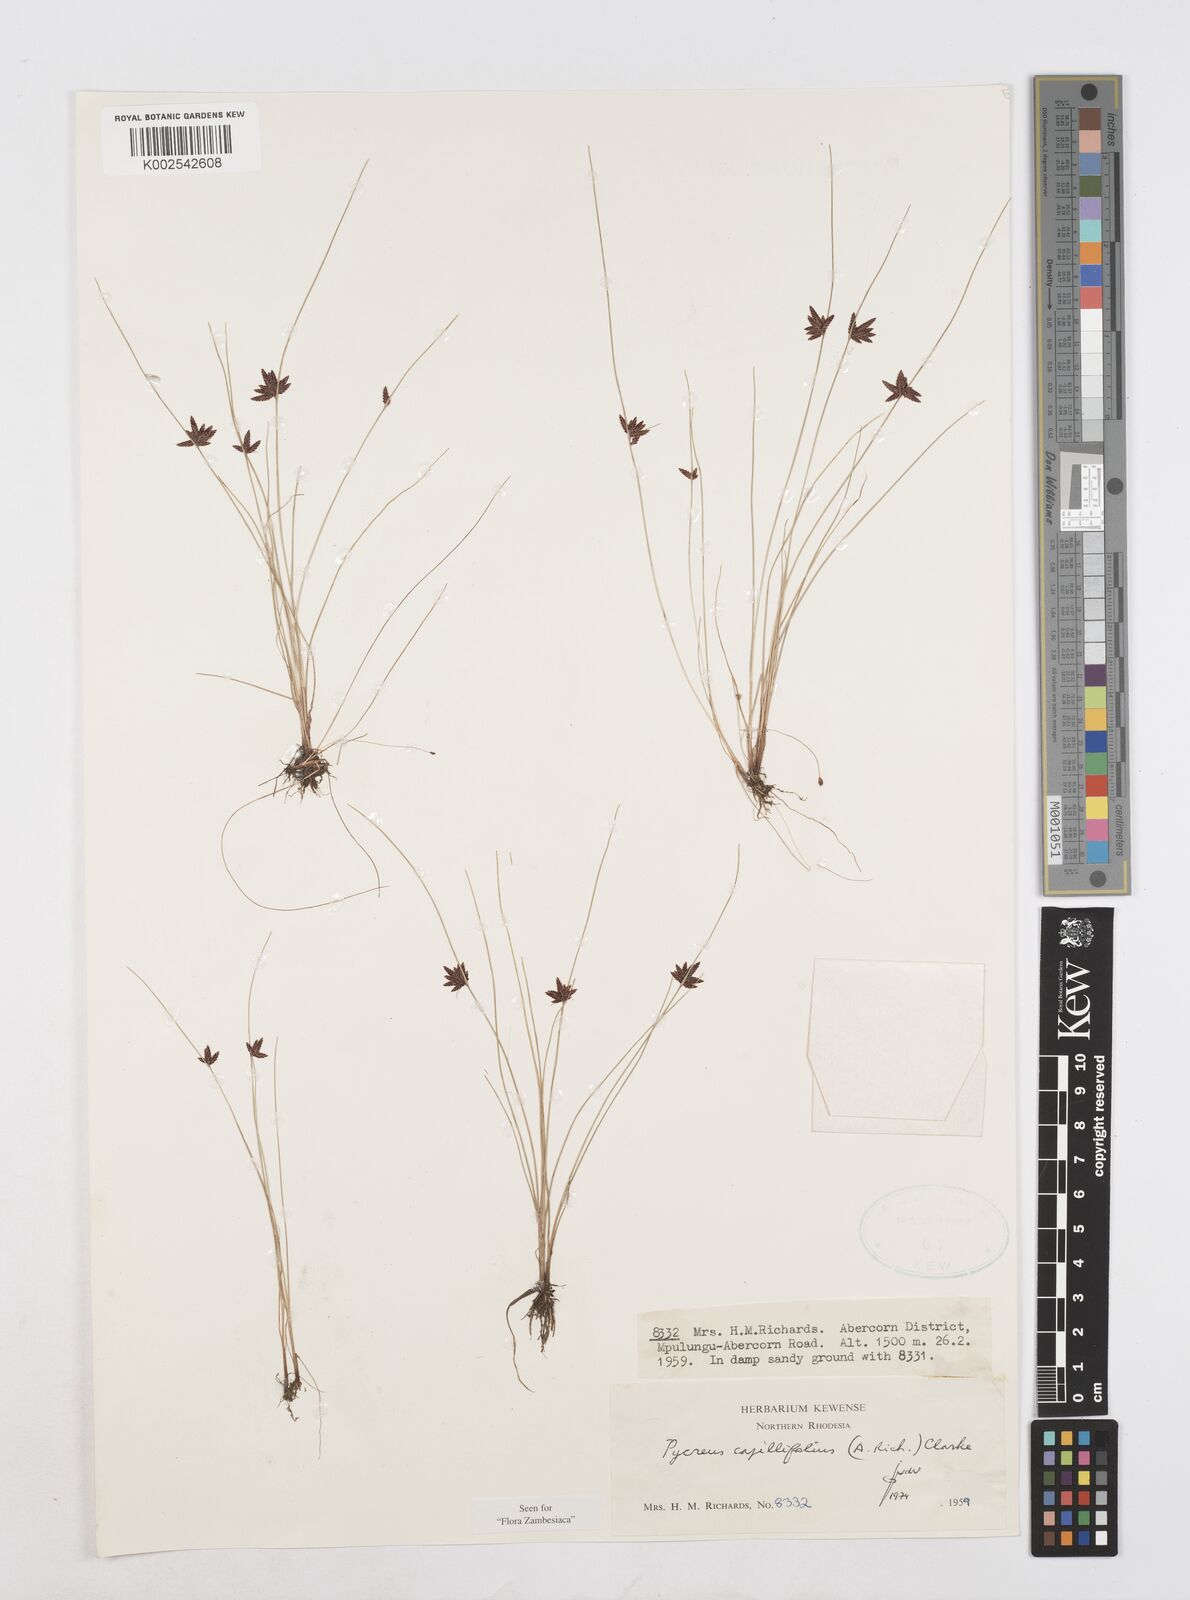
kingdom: Plantae
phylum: Tracheophyta
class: Liliopsida
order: Poales
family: Cyperaceae
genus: Cyperus
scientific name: Cyperus capillifolius
